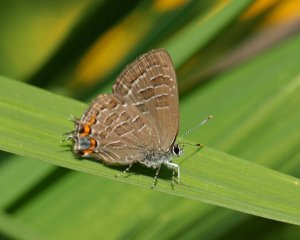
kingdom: Animalia
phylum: Arthropoda
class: Insecta
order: Lepidoptera
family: Lycaenidae
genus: Satyrium
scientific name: Satyrium liparops
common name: Striped Hairstreak
